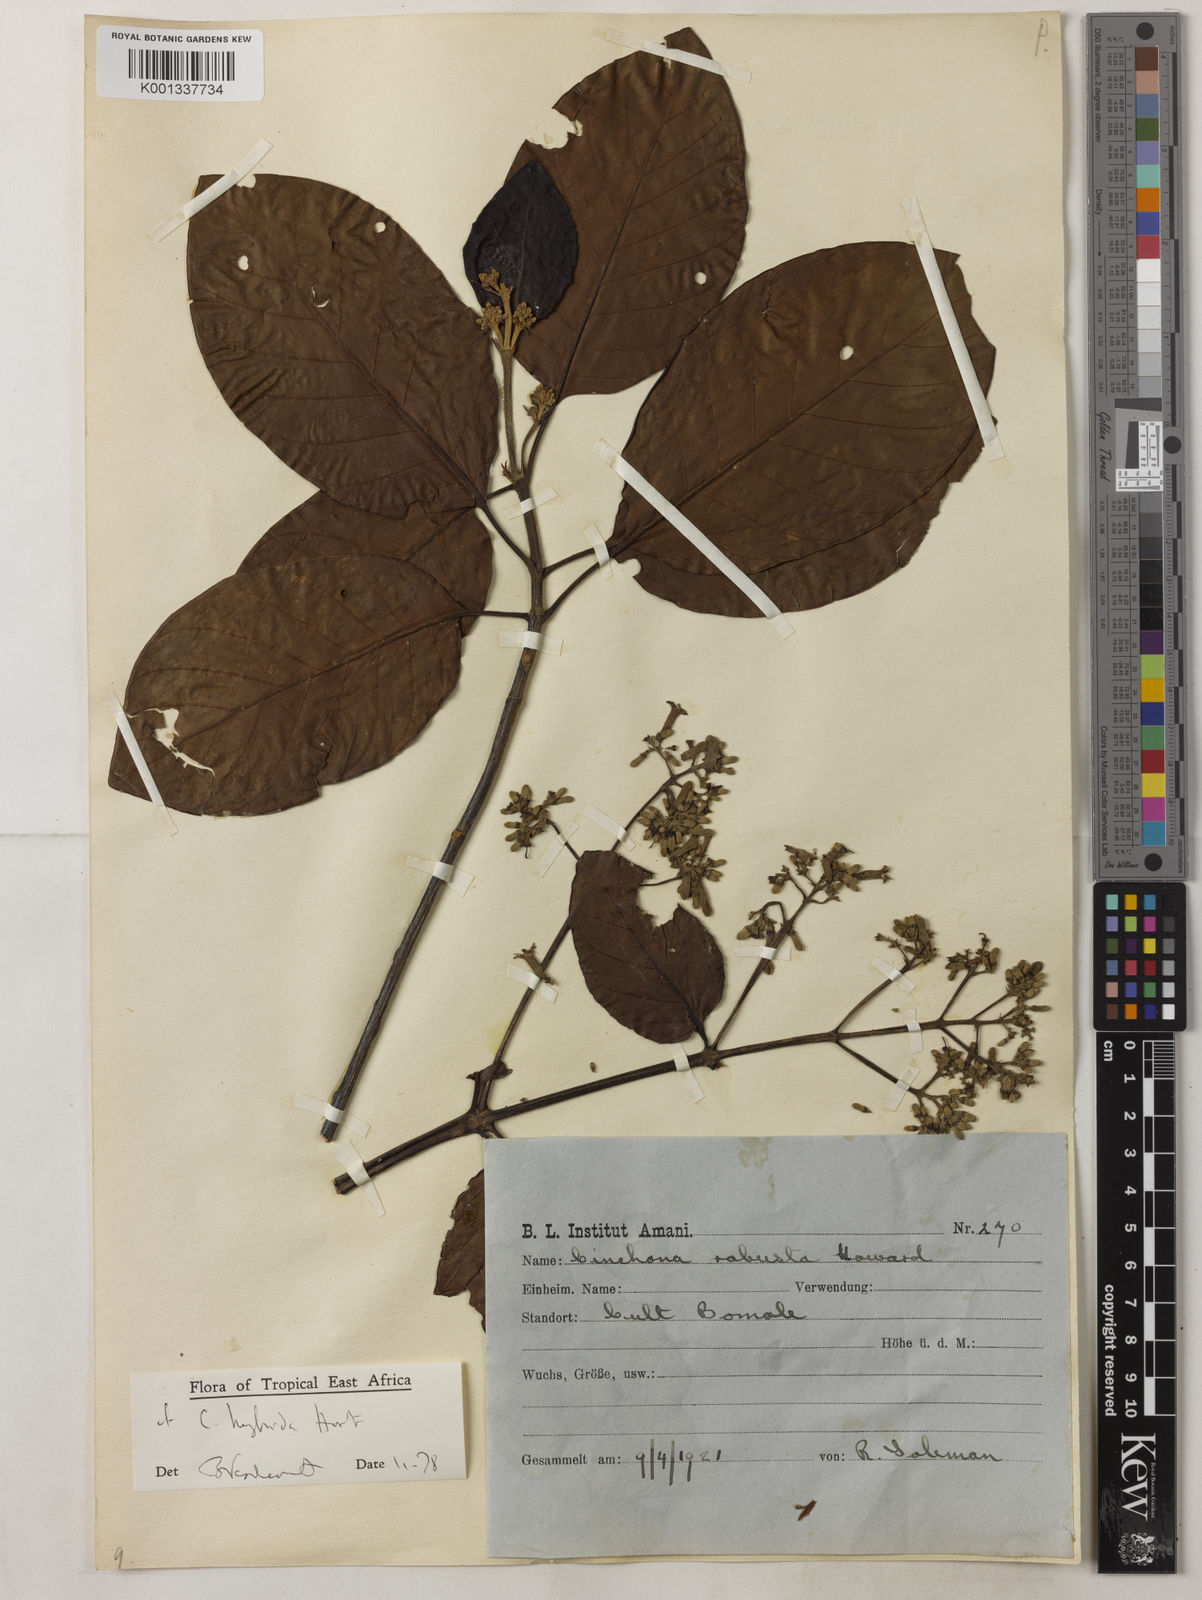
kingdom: Plantae
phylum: Tracheophyta
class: Magnoliopsida
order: Gentianales
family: Rubiaceae
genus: Cinchona
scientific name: Cinchona
